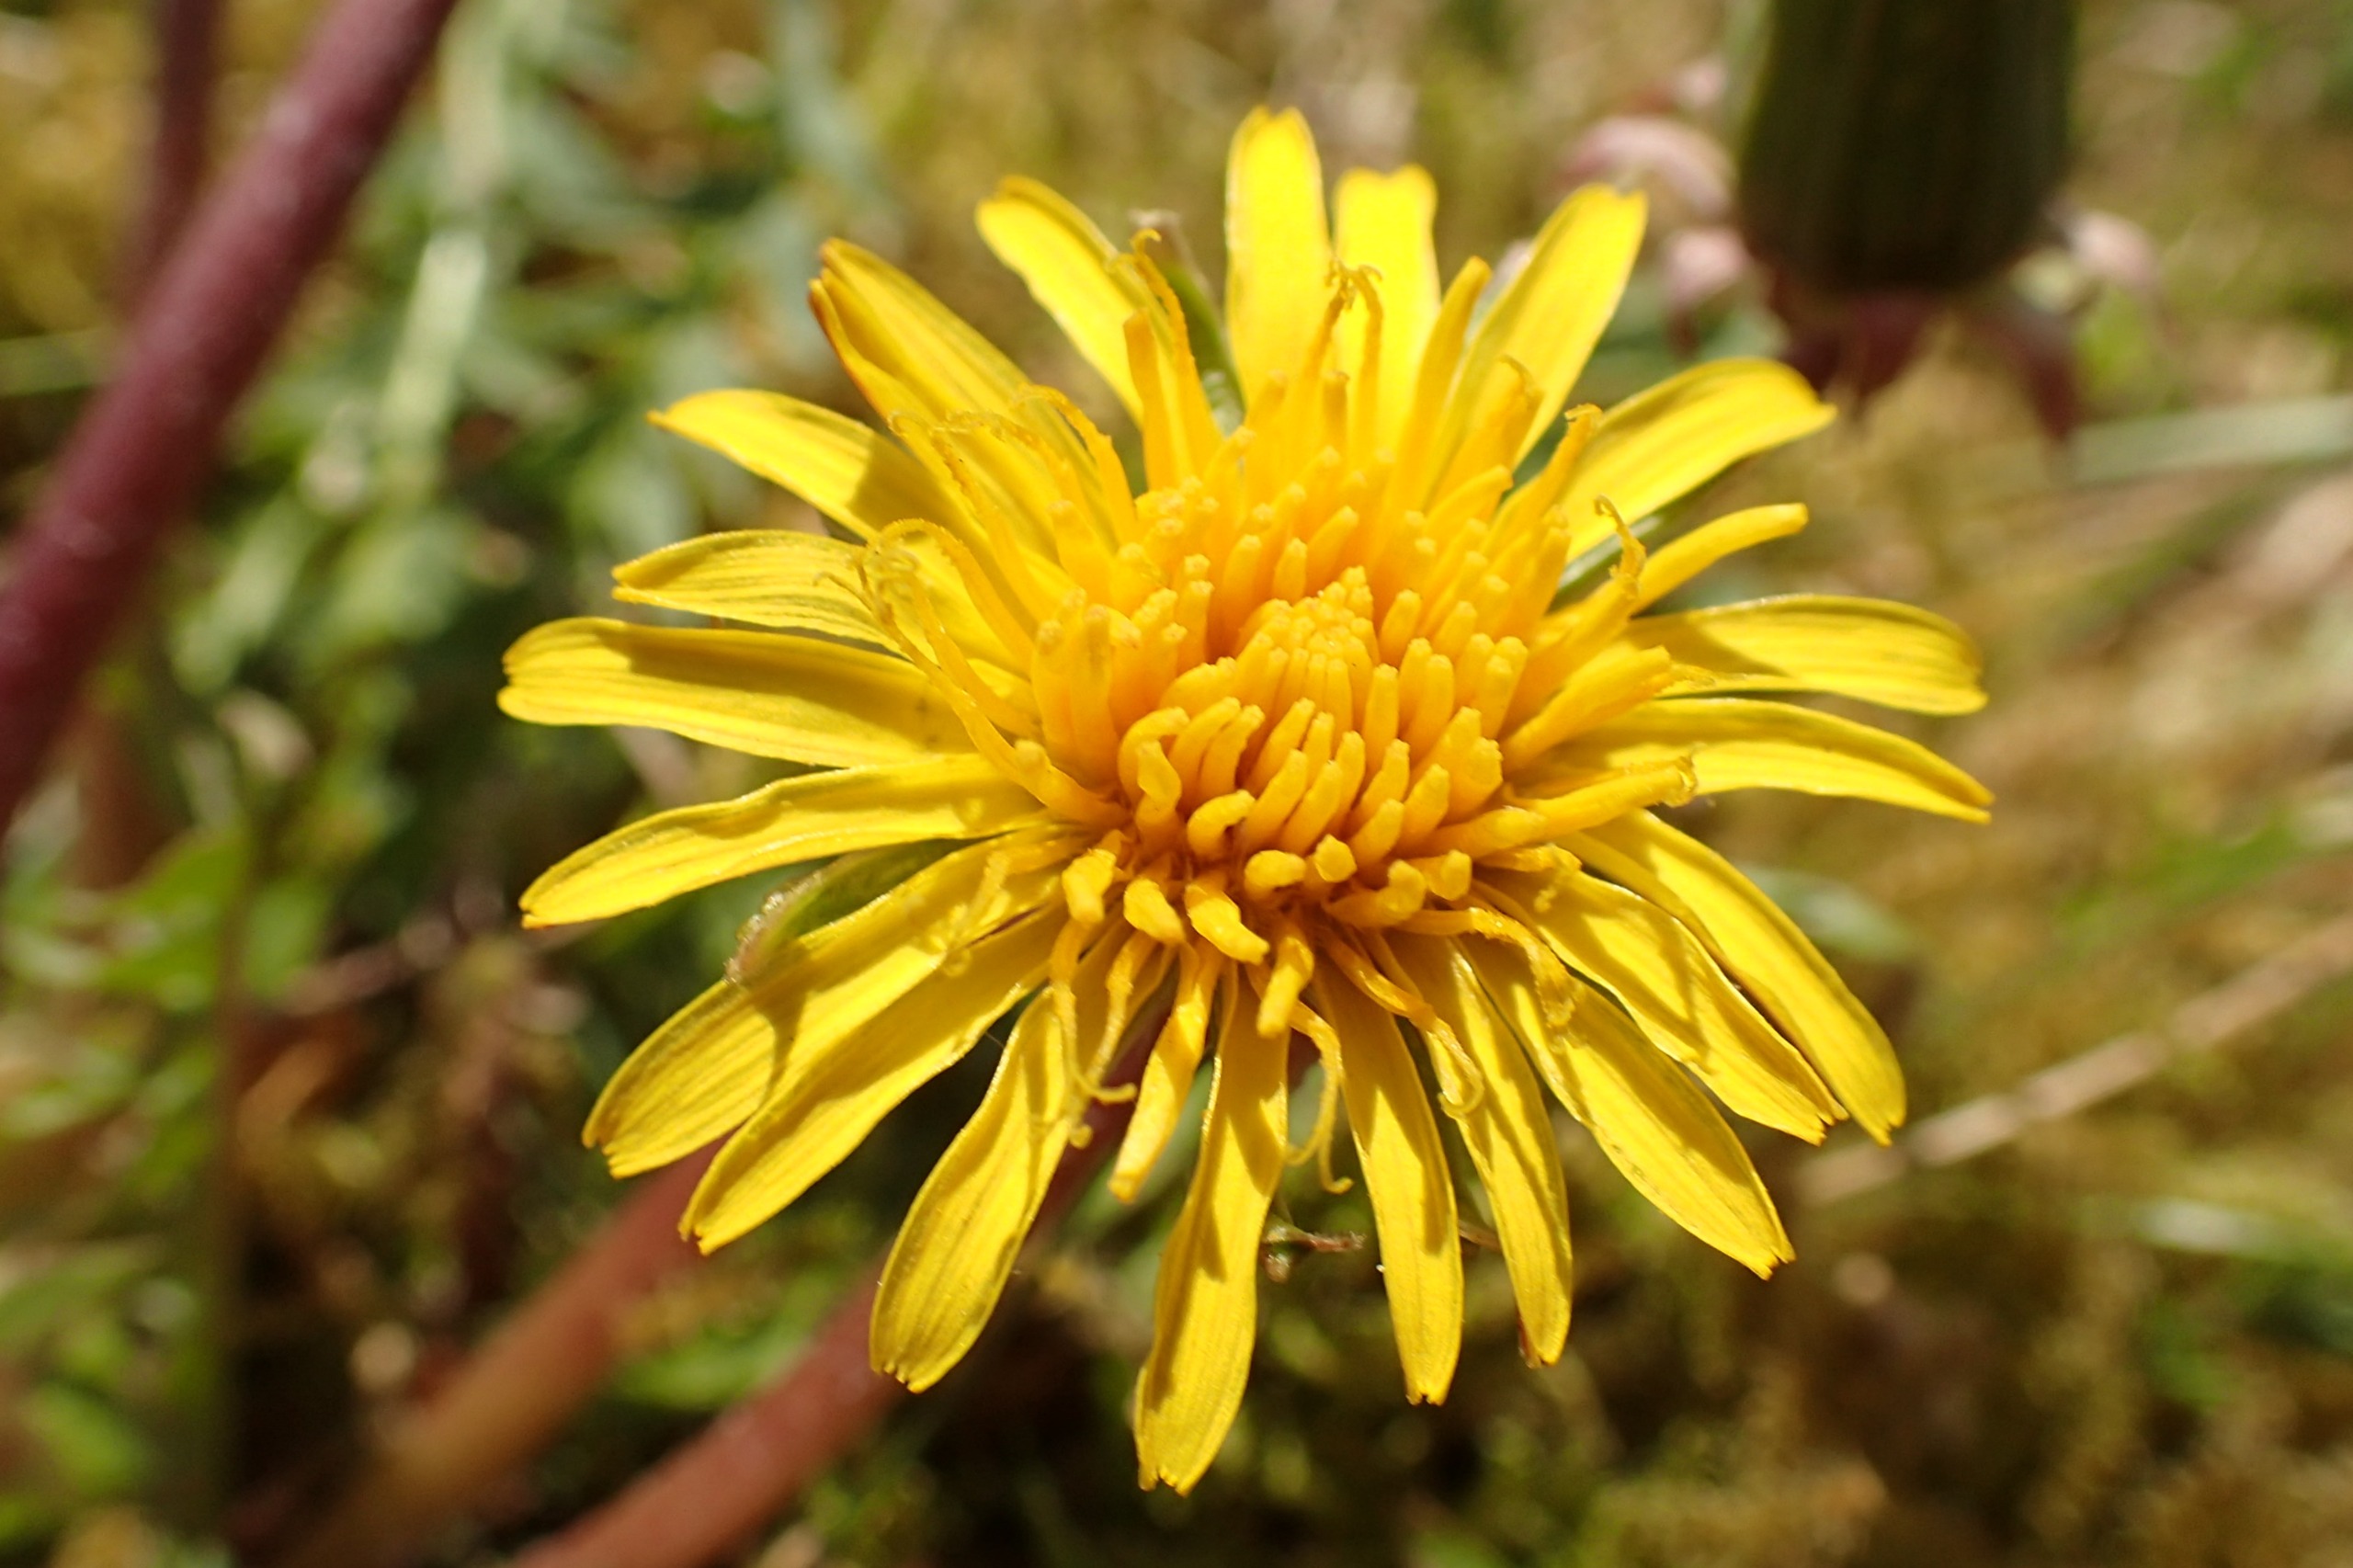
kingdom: Plantae
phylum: Tracheophyta
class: Magnoliopsida
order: Asterales
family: Asteraceae
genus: Taraxacum
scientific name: Taraxacum platyglossum
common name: Fladtunge-dværgmælkebøtte
